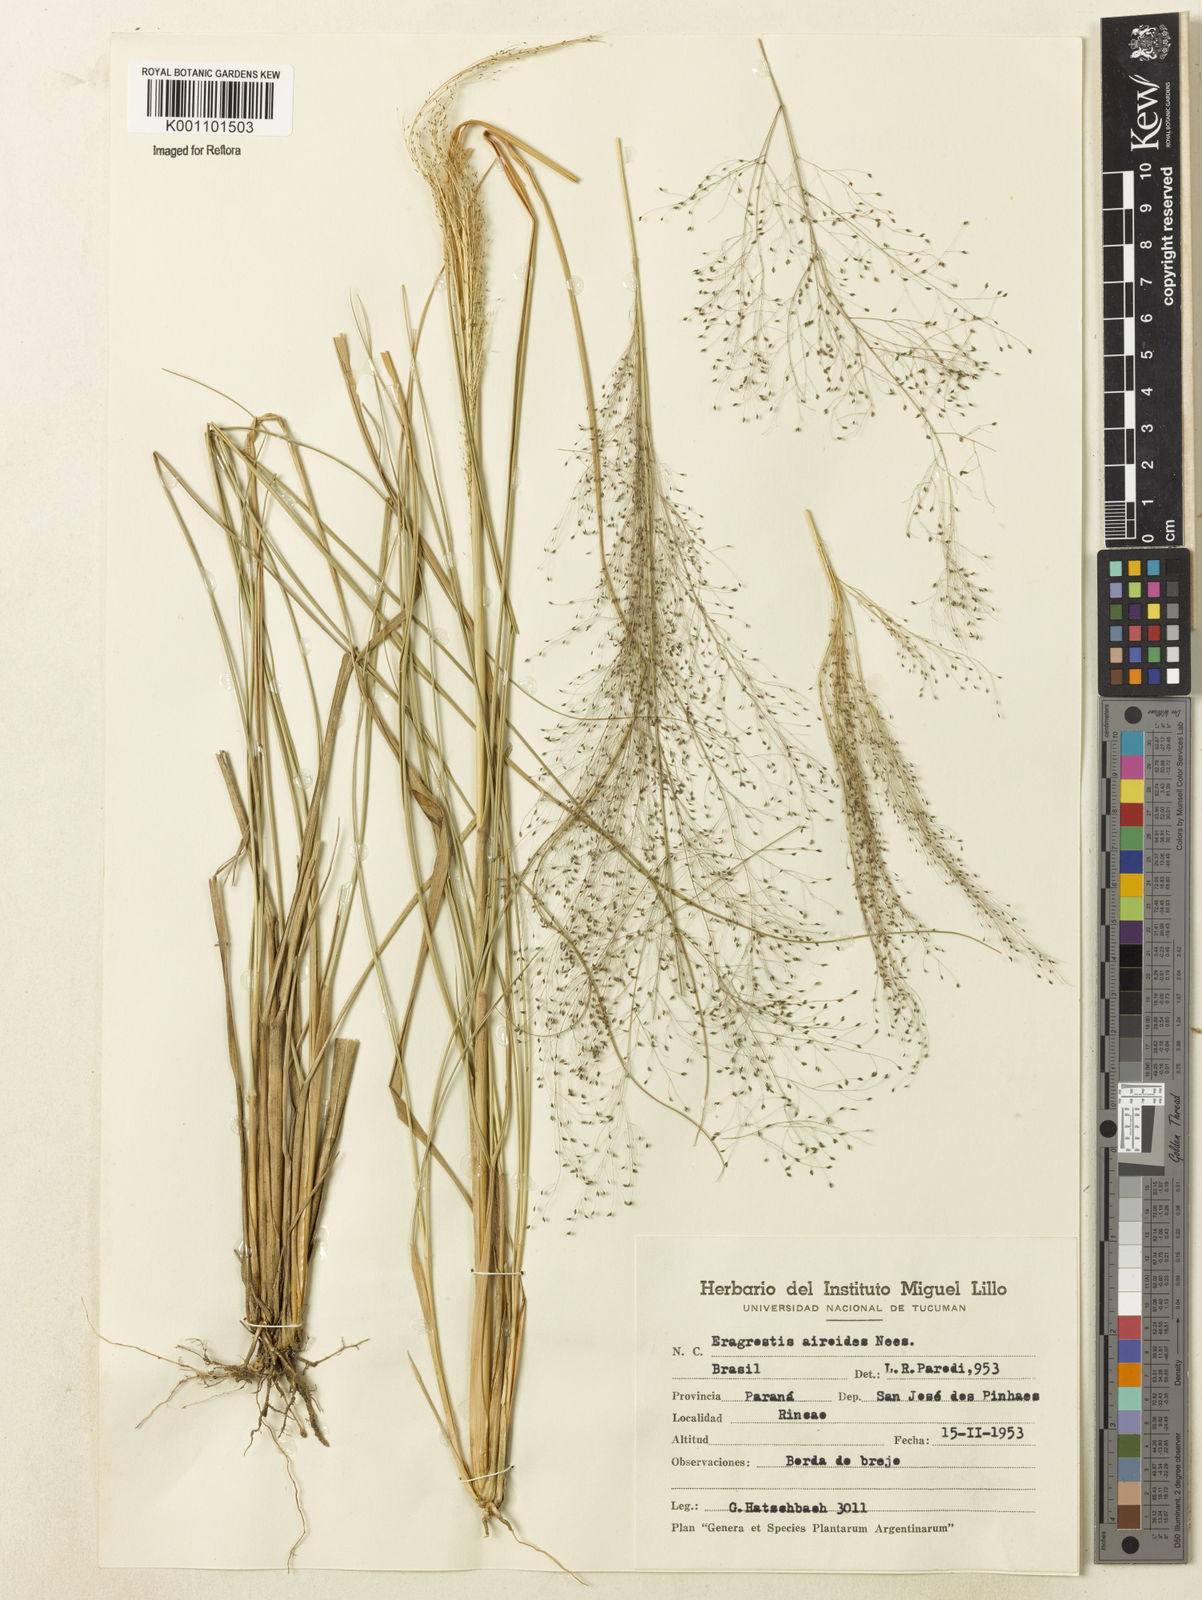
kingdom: Plantae
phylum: Tracheophyta
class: Liliopsida
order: Poales
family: Poaceae
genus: Eragrostis
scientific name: Eragrostis airoides
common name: Darnel lovegrass
